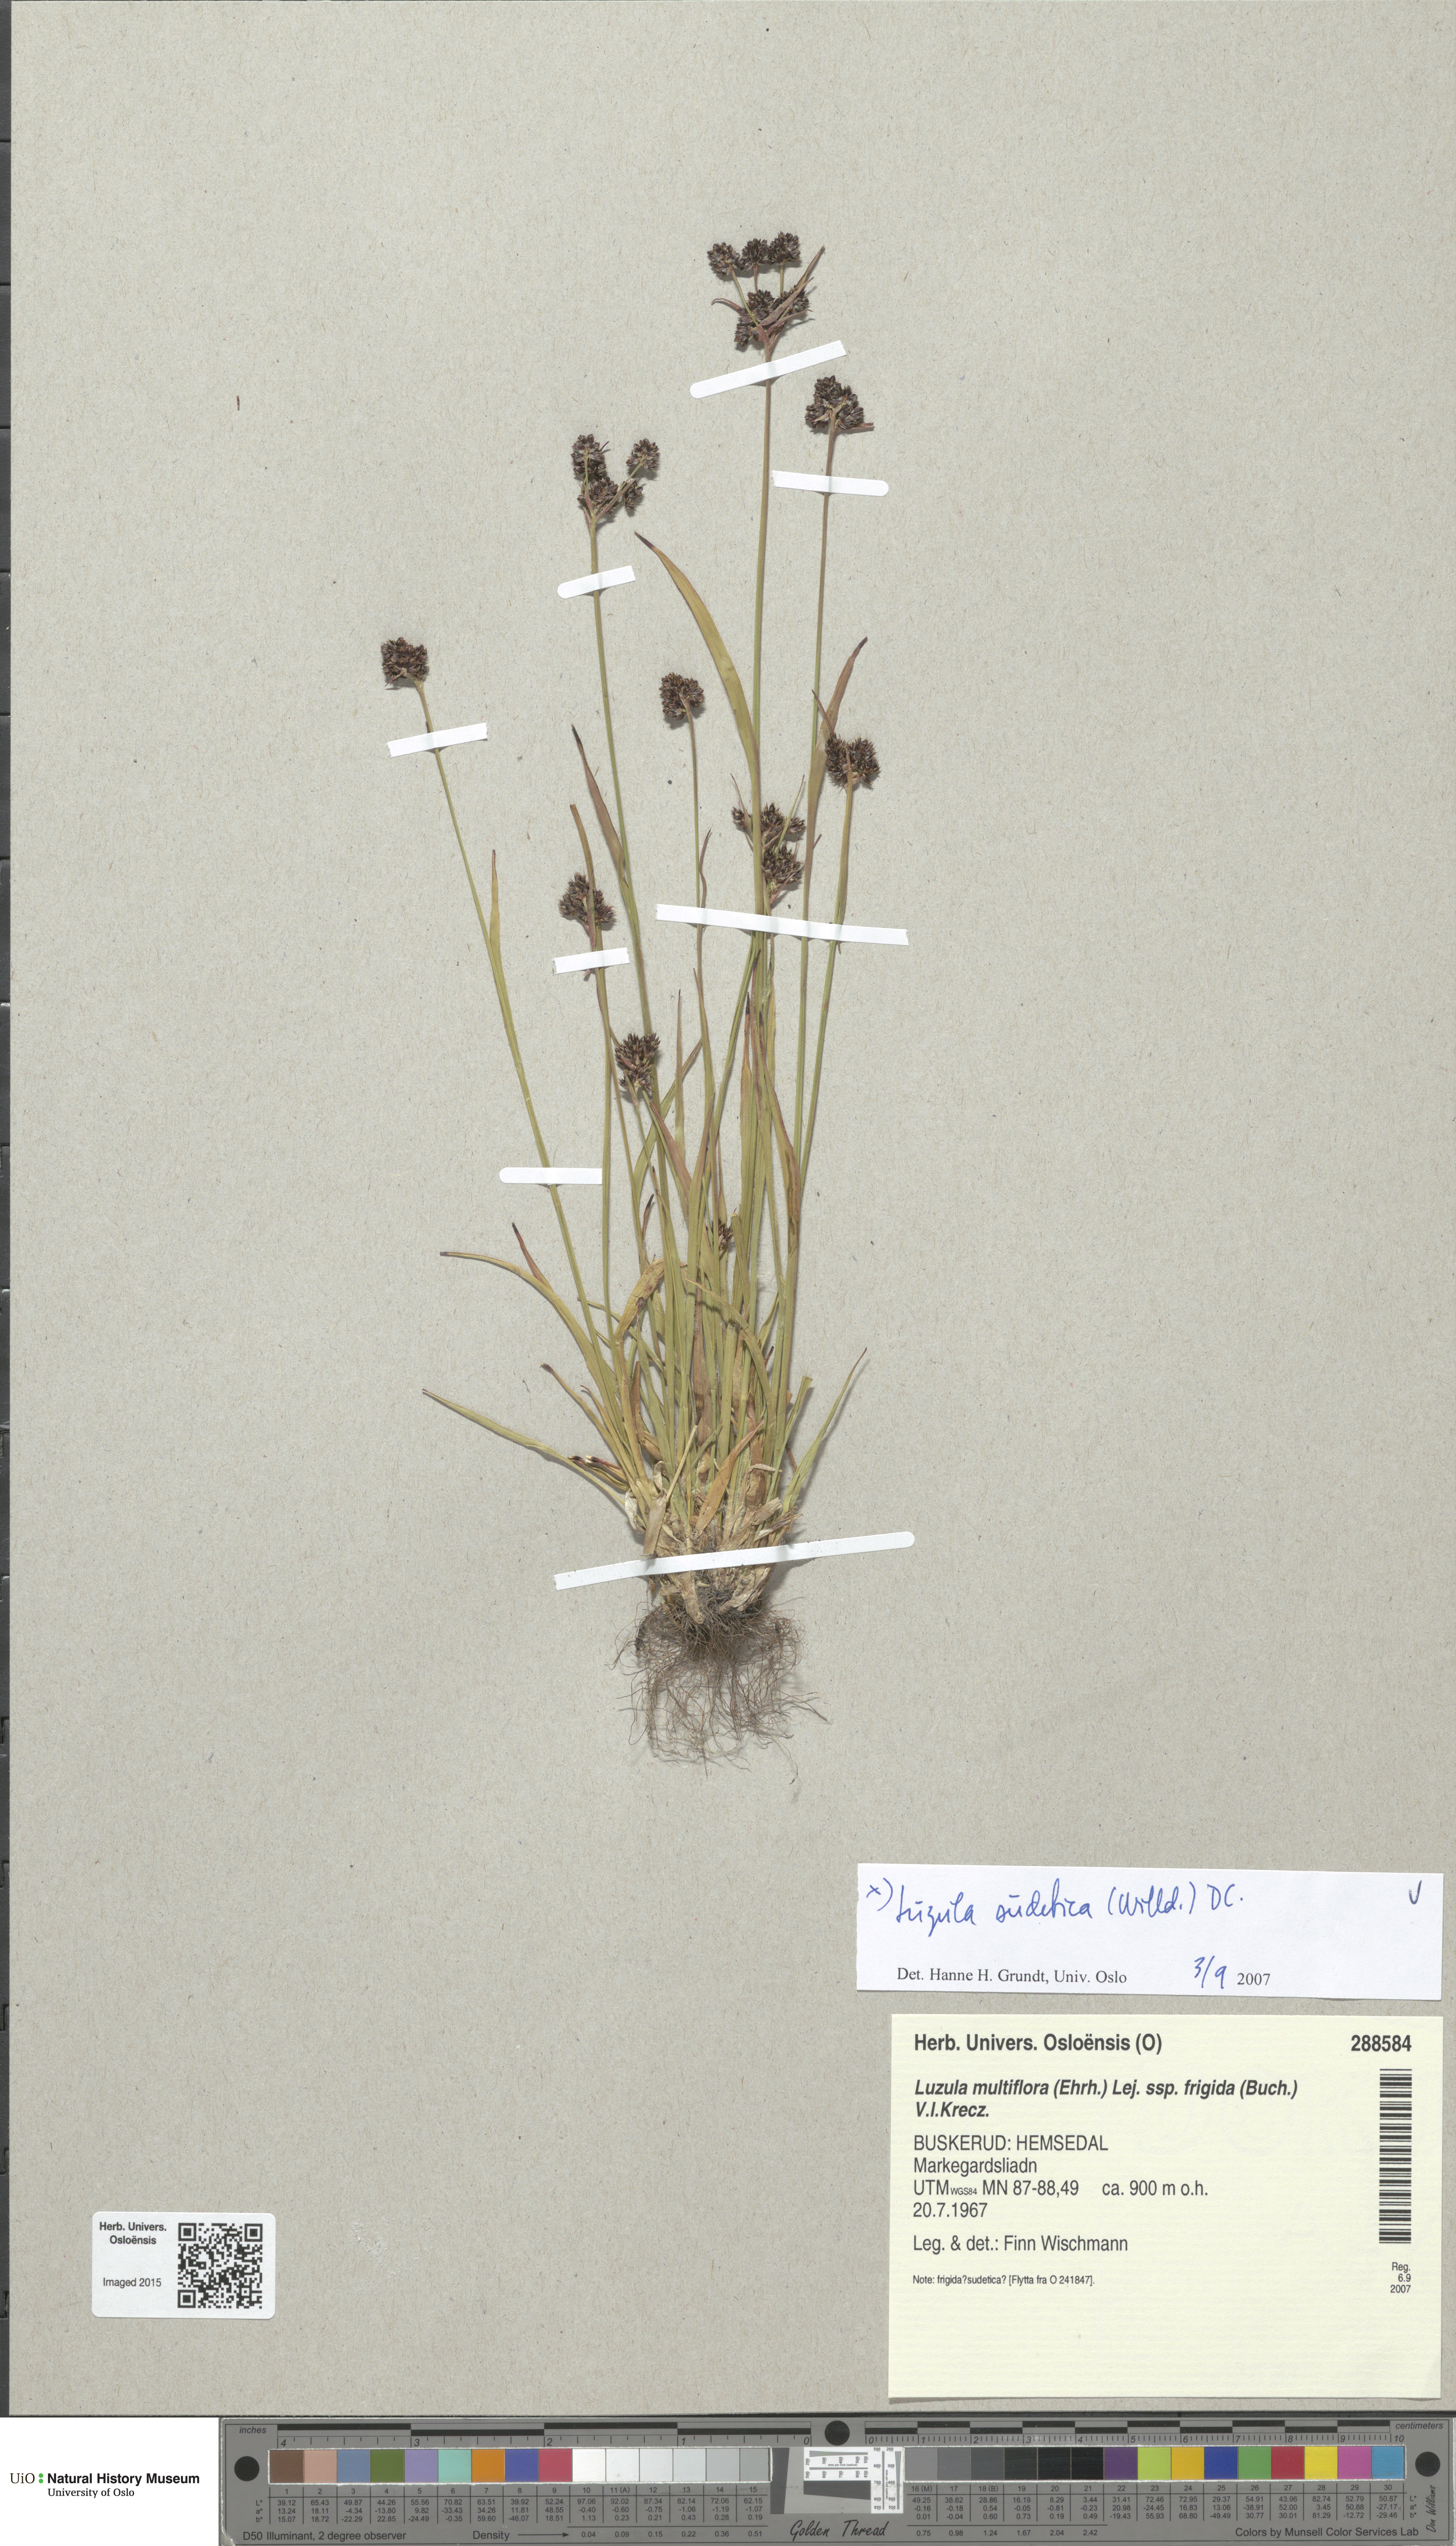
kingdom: Plantae
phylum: Tracheophyta
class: Liliopsida
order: Poales
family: Juncaceae
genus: Luzula
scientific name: Luzula sudetica
